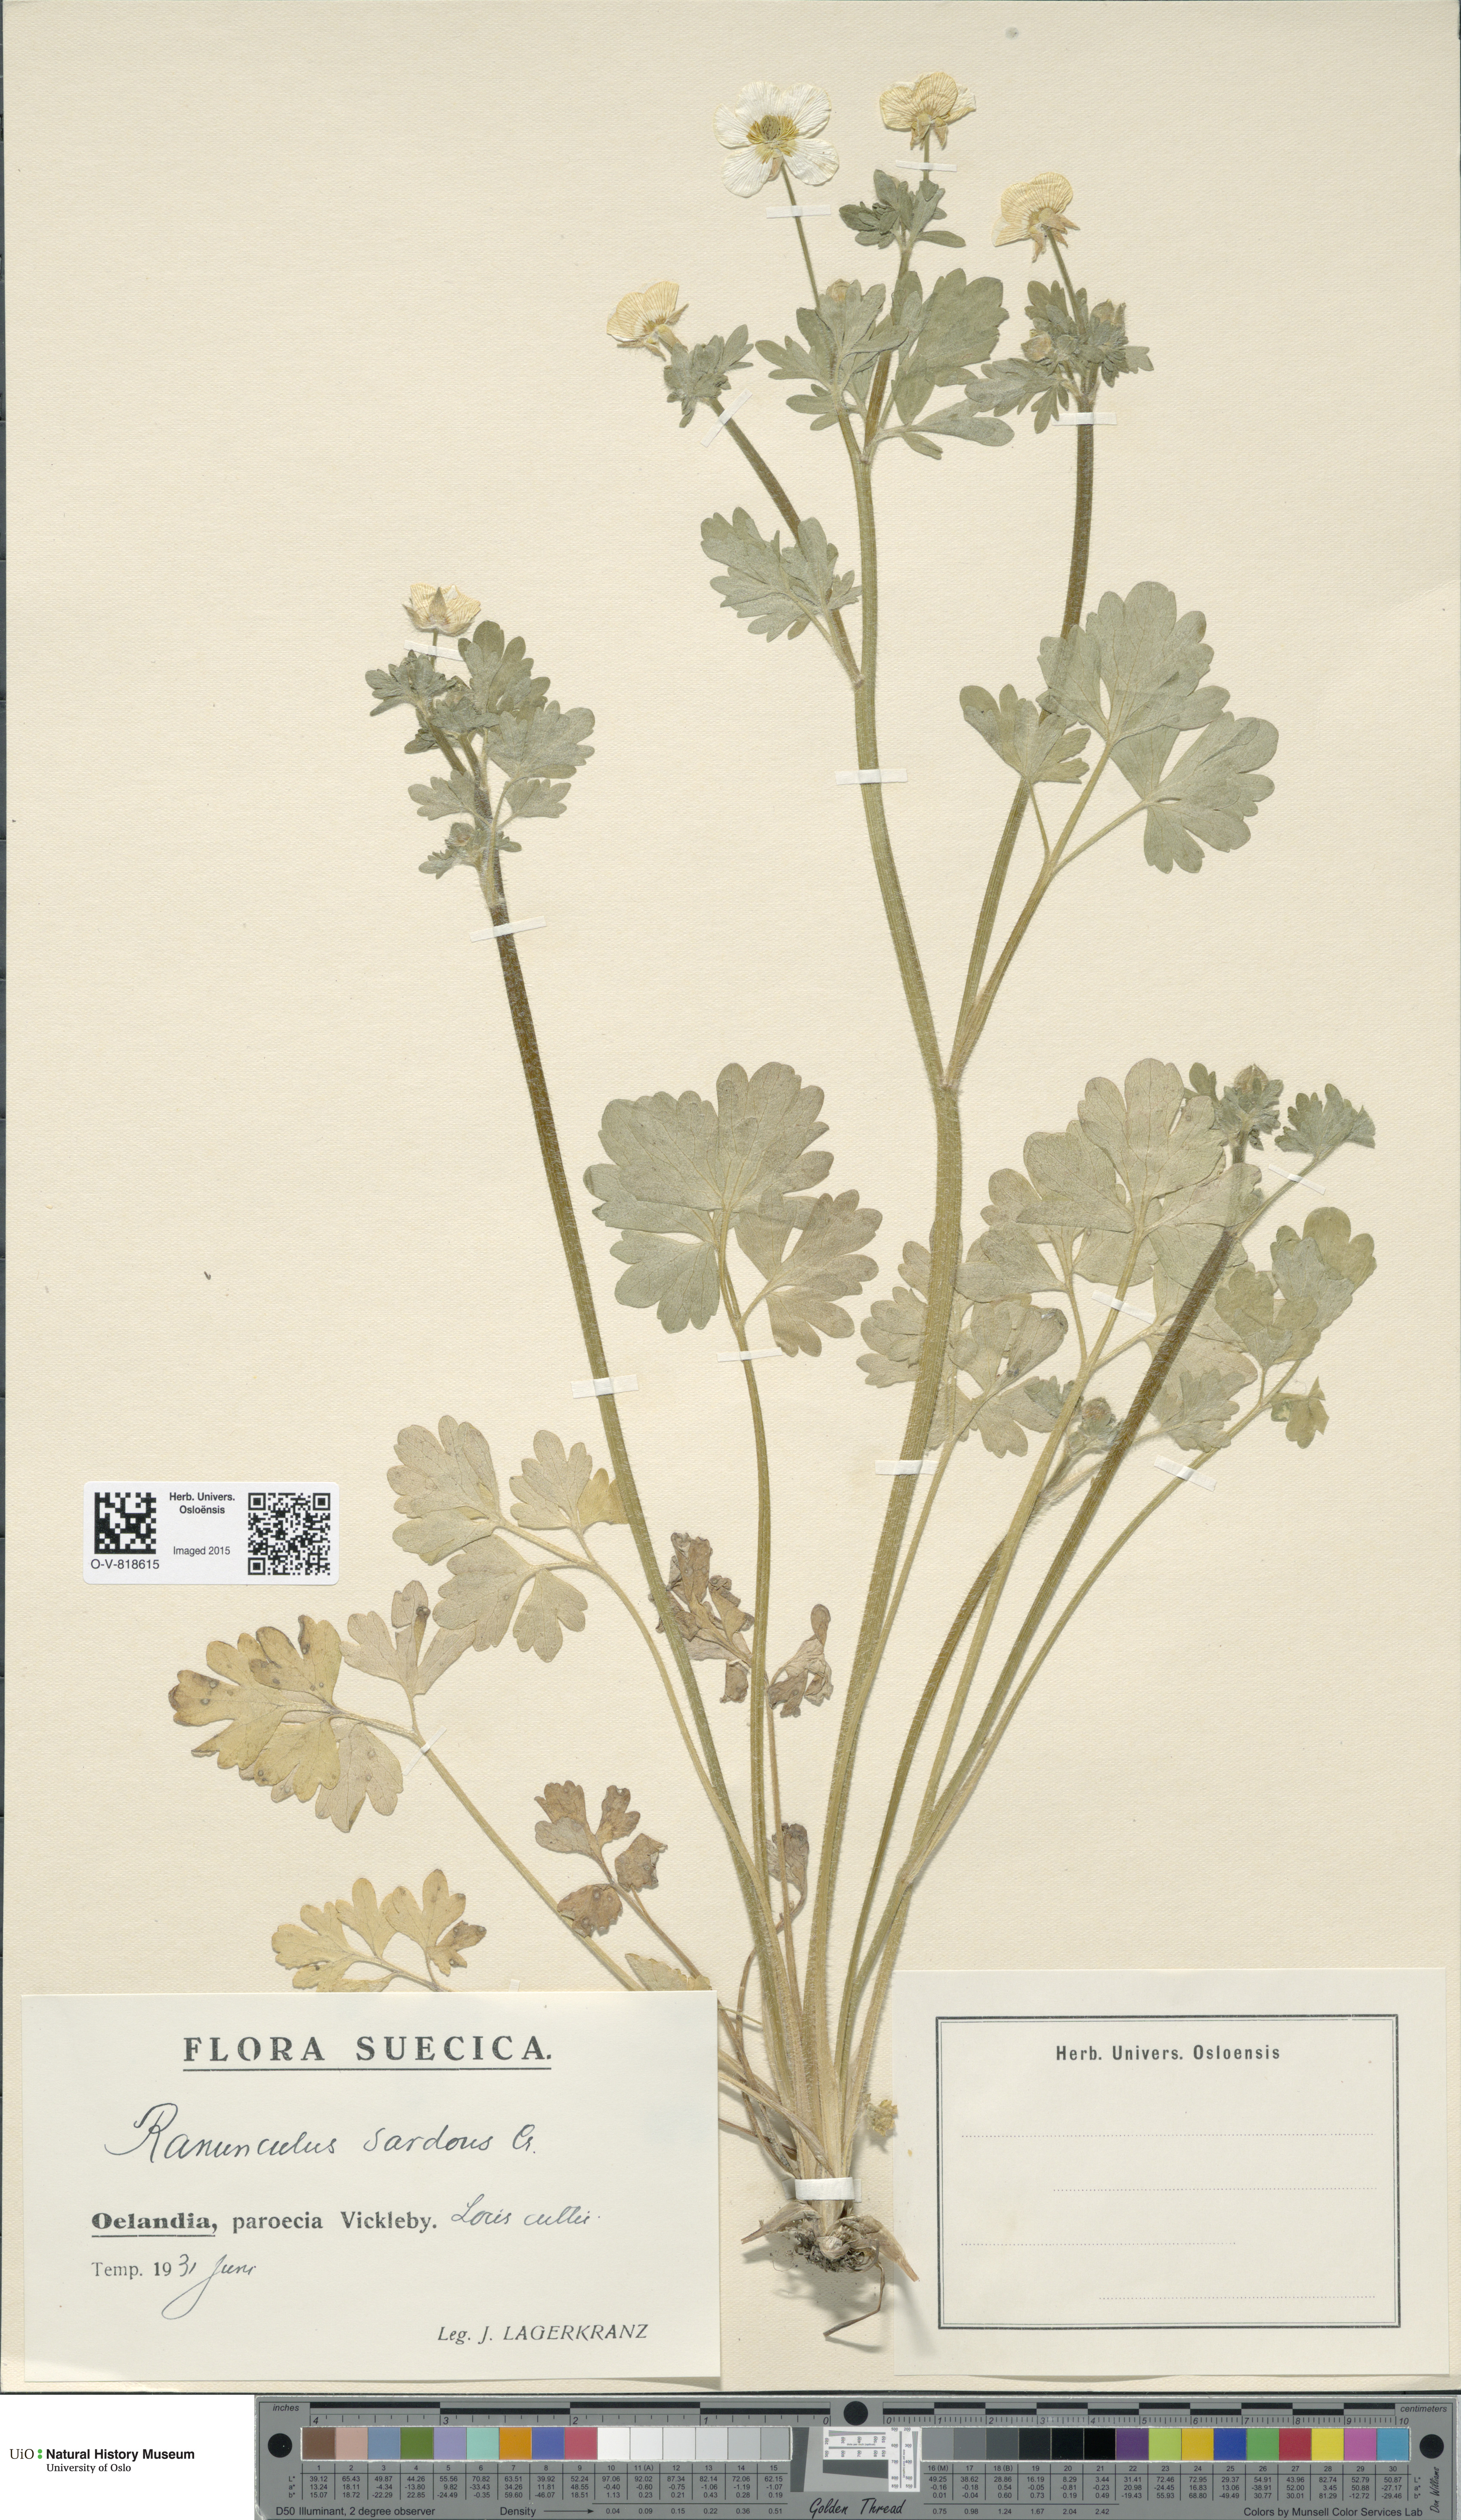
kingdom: Plantae
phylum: Tracheophyta
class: Magnoliopsida
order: Ranunculales
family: Ranunculaceae
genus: Ranunculus
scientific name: Ranunculus sardous
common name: Hairy buttercup
